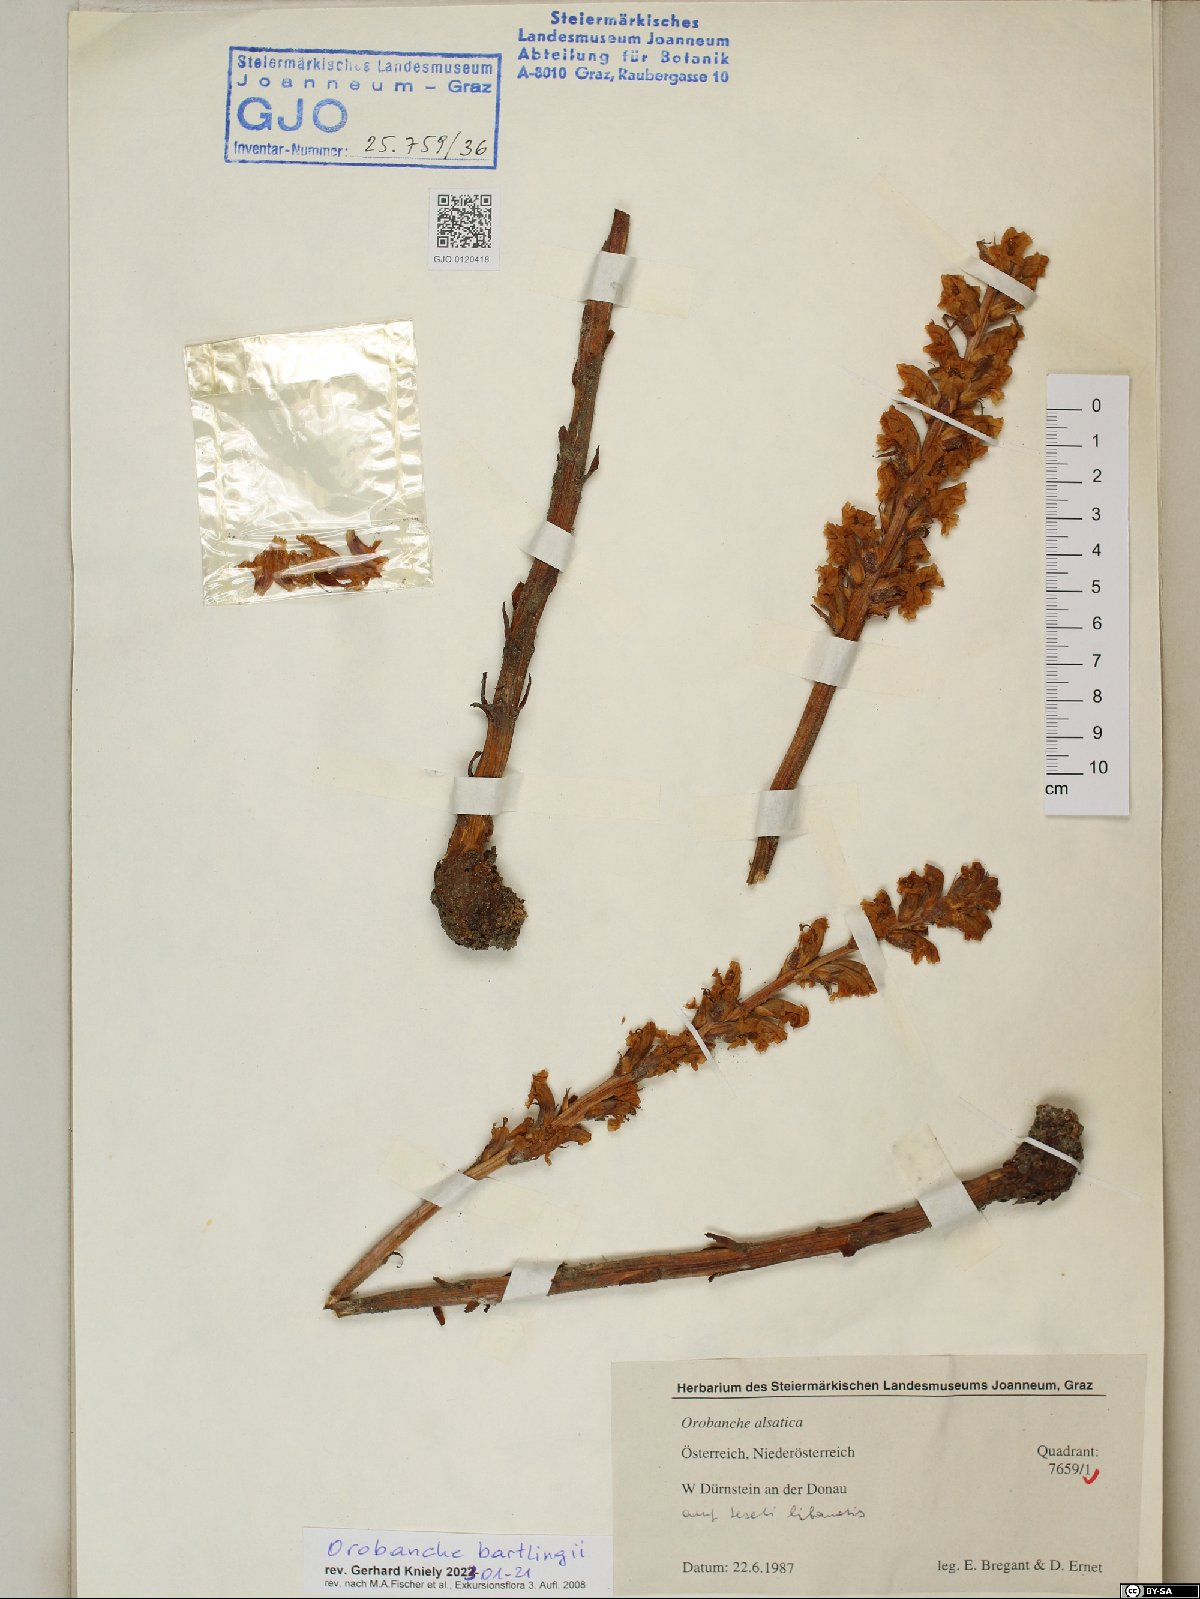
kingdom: Plantae
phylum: Tracheophyta
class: Magnoliopsida
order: Lamiales
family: Orobanchaceae
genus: Orobanche
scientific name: Orobanche alsatica
